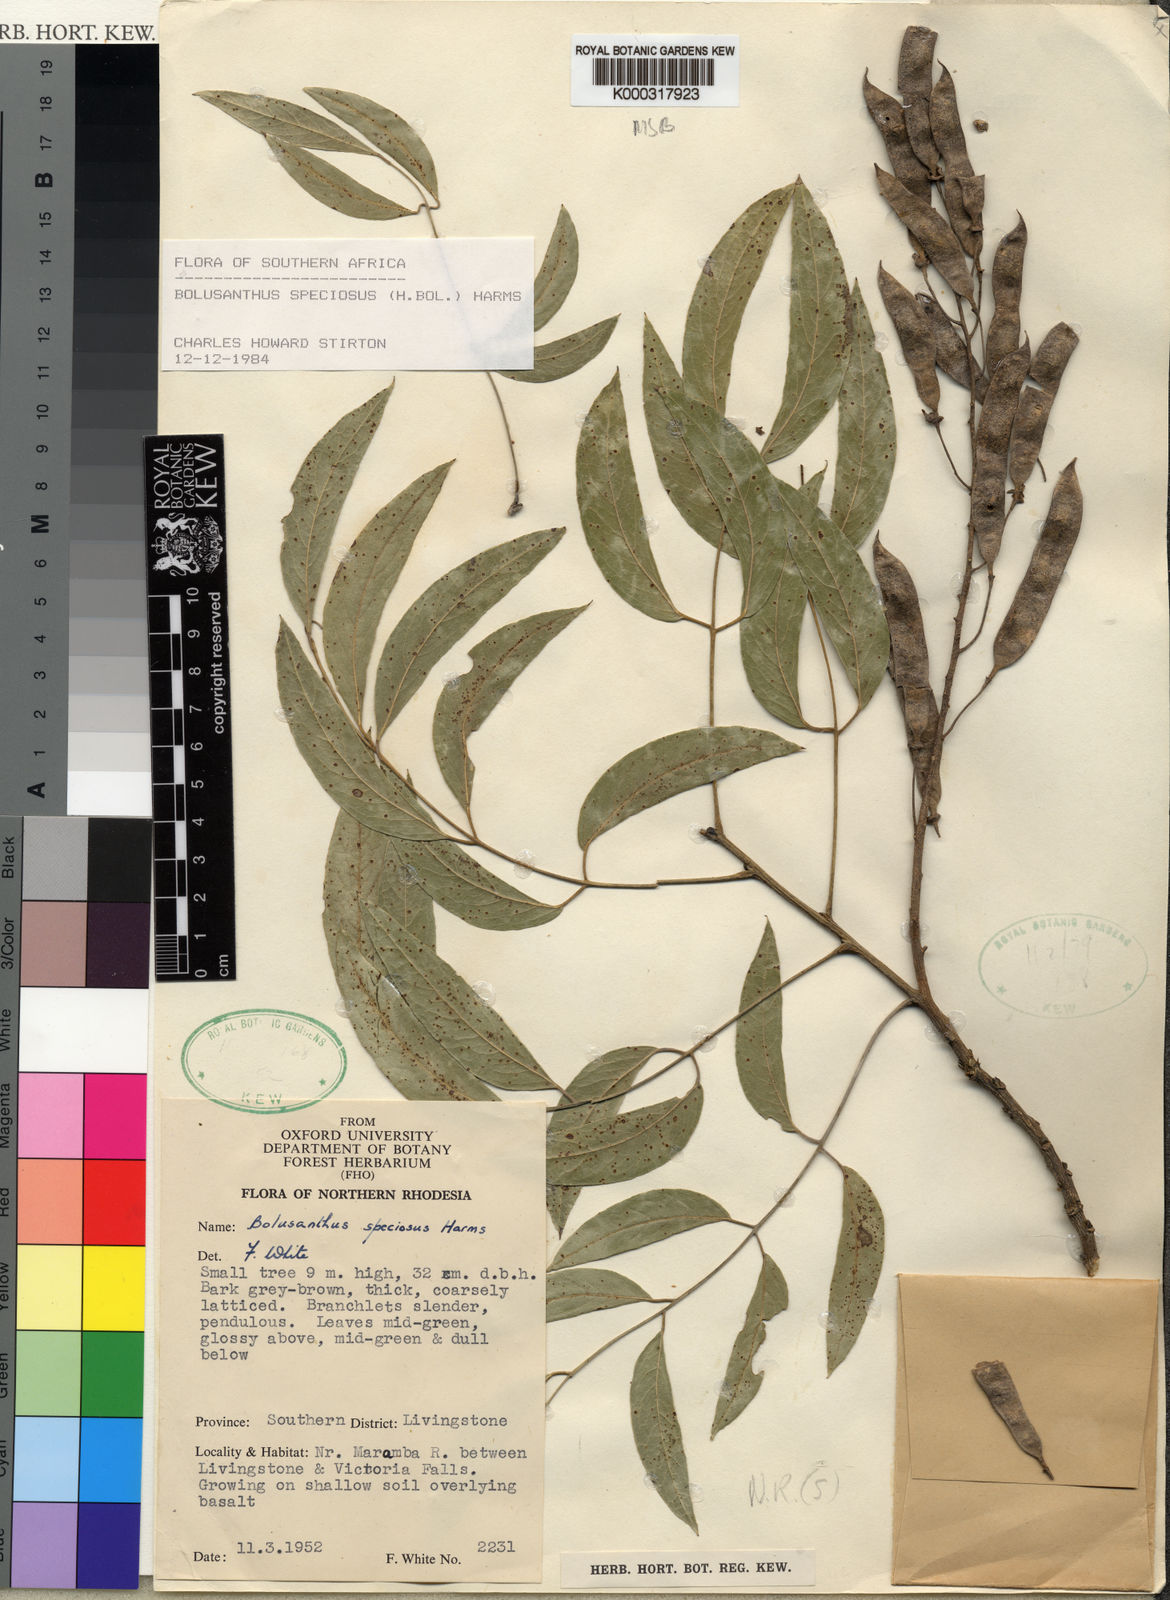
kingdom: Plantae
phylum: Tracheophyta
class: Magnoliopsida
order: Fabales
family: Fabaceae
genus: Bolusanthus
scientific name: Bolusanthus speciosus
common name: Tree wisteria
